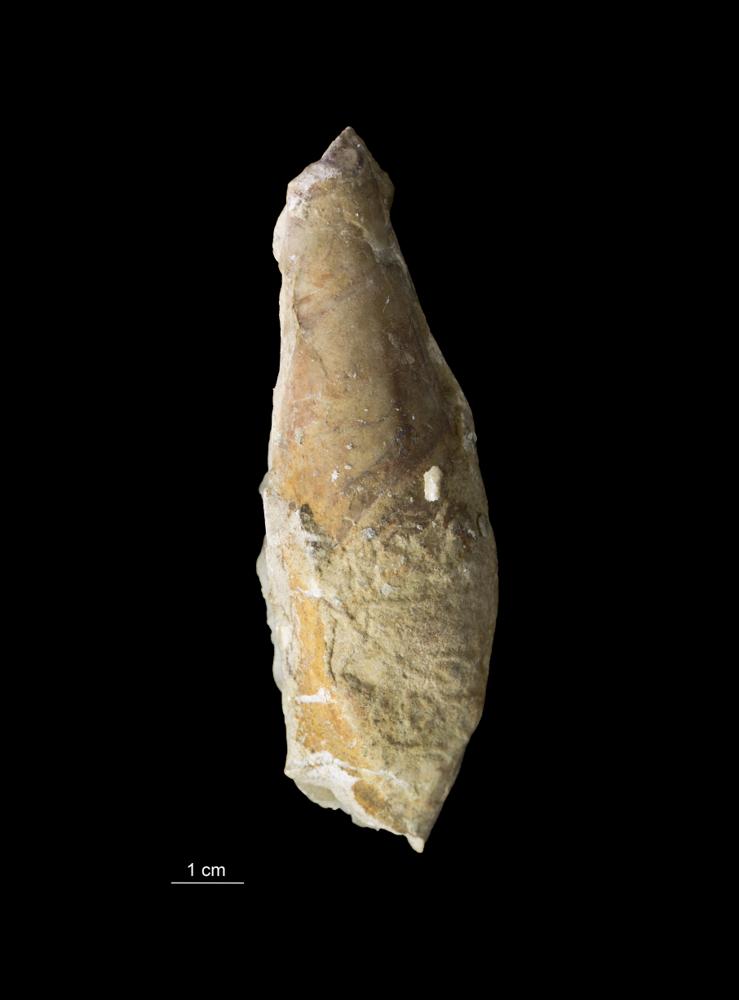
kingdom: Animalia
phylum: Mollusca
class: Gastropoda
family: Subulitidae
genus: Subulites
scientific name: Subulites subula
